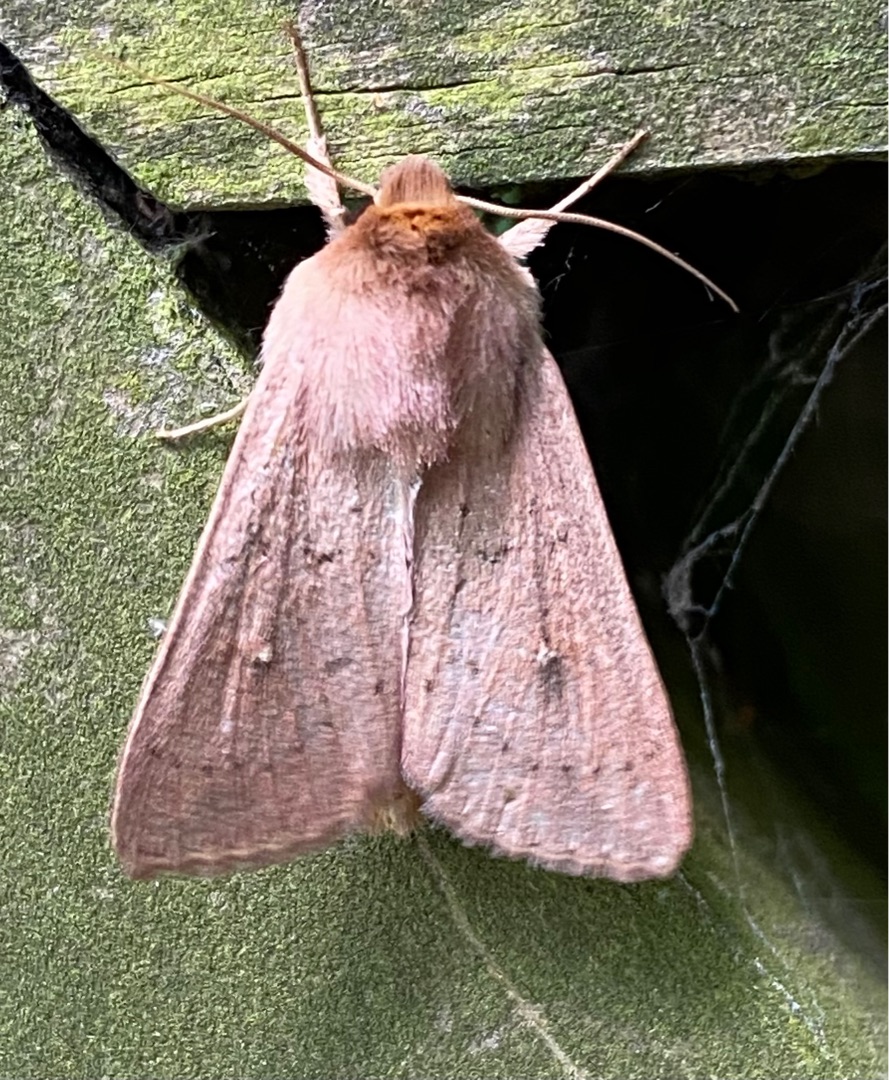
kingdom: Animalia
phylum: Arthropoda
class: Insecta
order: Lepidoptera
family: Noctuidae
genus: Mythimna
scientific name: Mythimna ferrago
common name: Rusten græsugle
